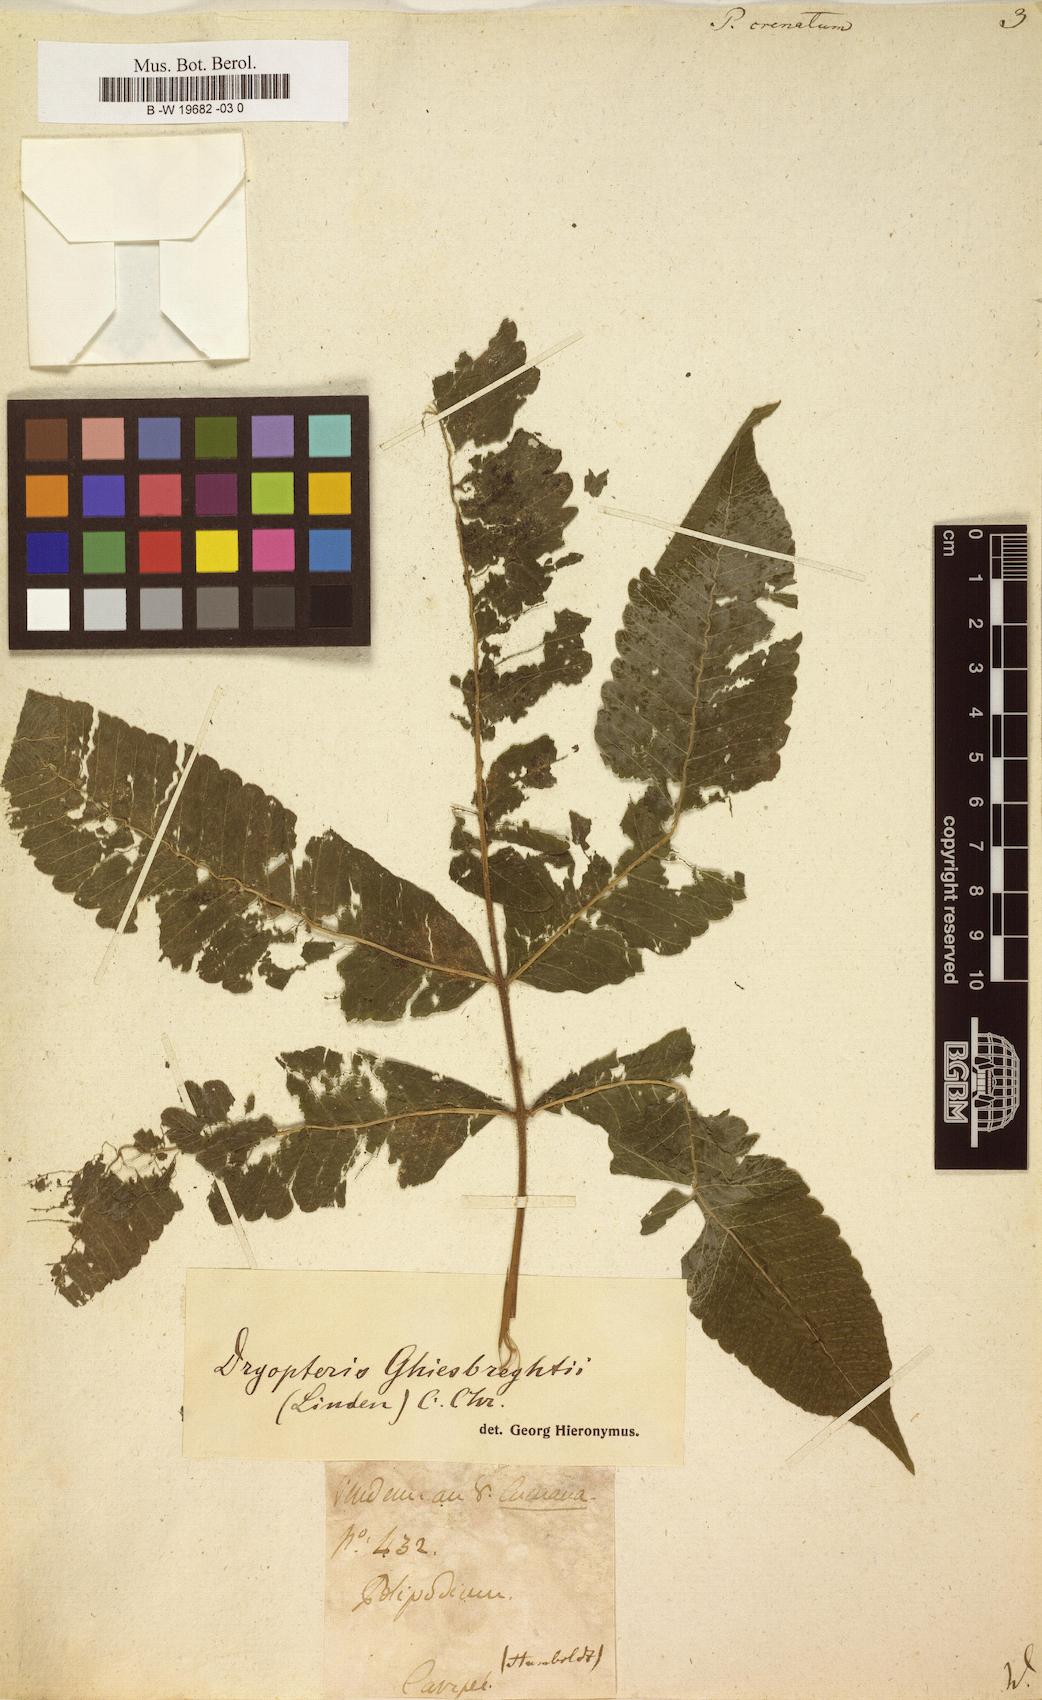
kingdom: Plantae
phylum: Tracheophyta
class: Polypodiopsida
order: Polypodiales
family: Thelypteridaceae
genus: Goniopteris
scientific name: Goniopteris poiteana
